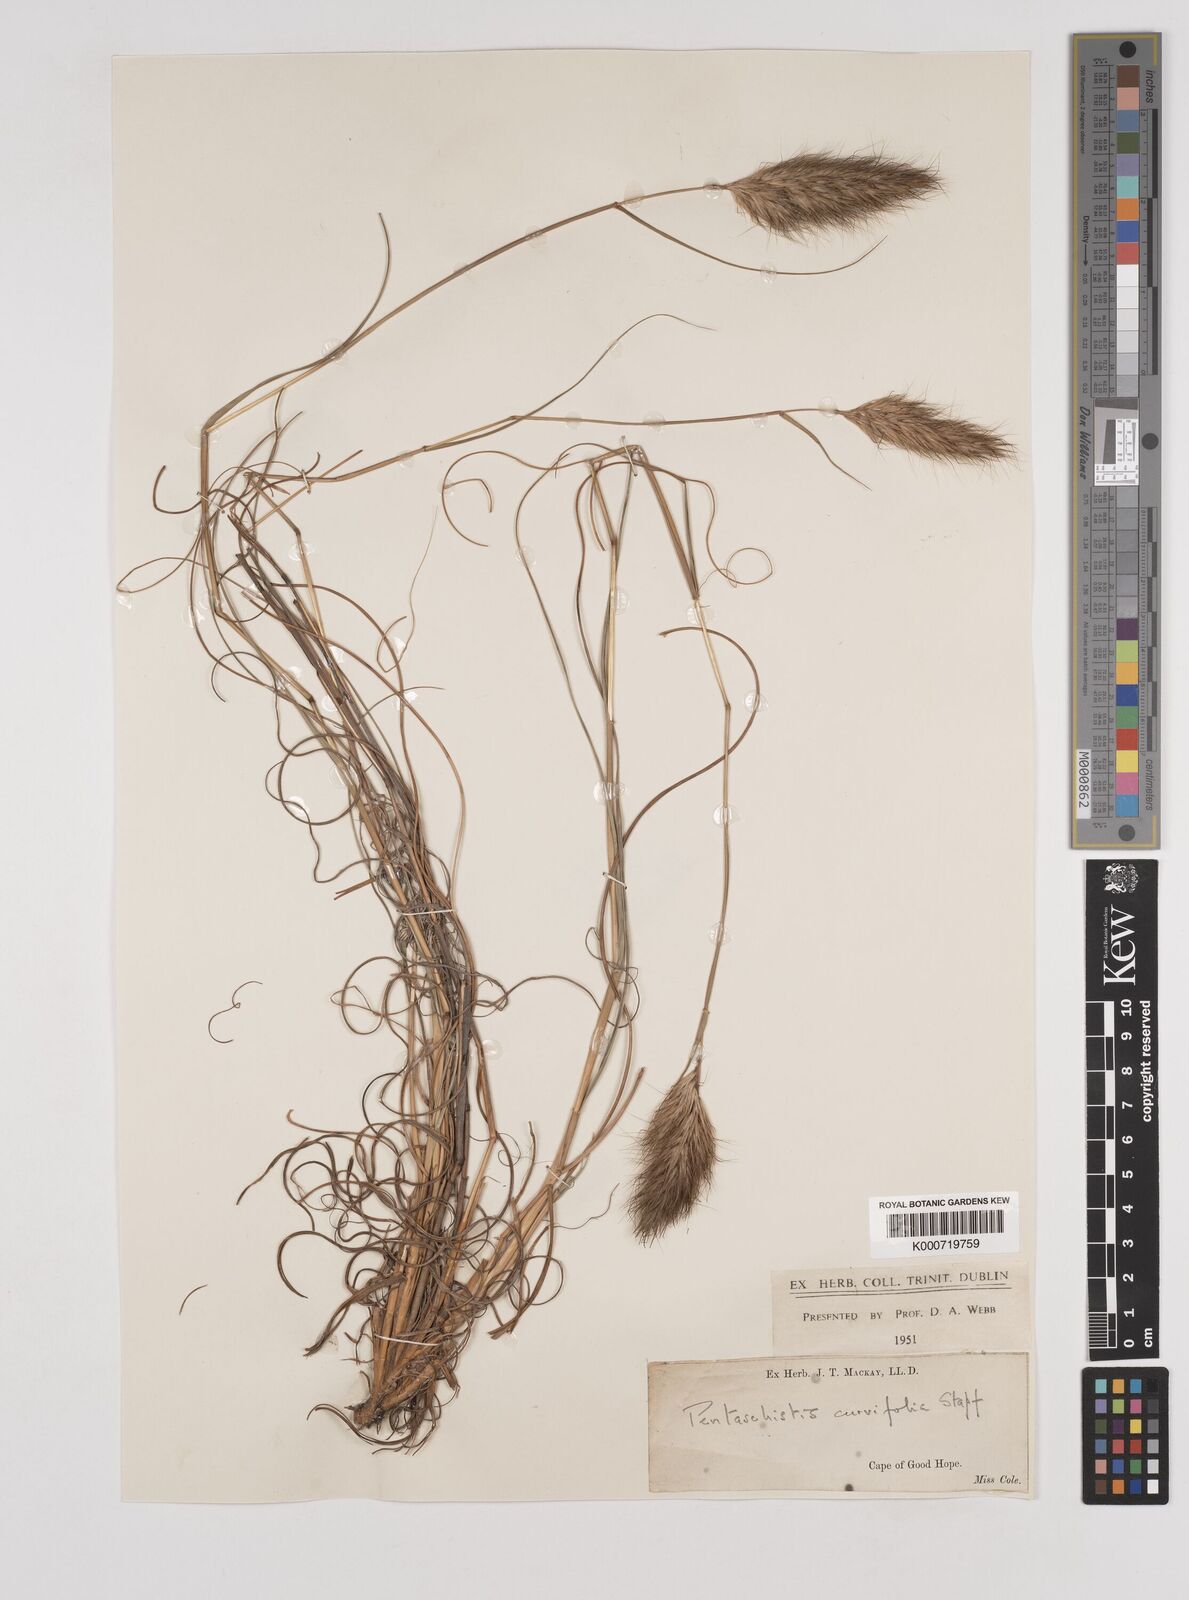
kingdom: Plantae
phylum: Tracheophyta
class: Liliopsida
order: Poales
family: Poaceae
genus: Pentameris
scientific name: Pentameris curvifolia
